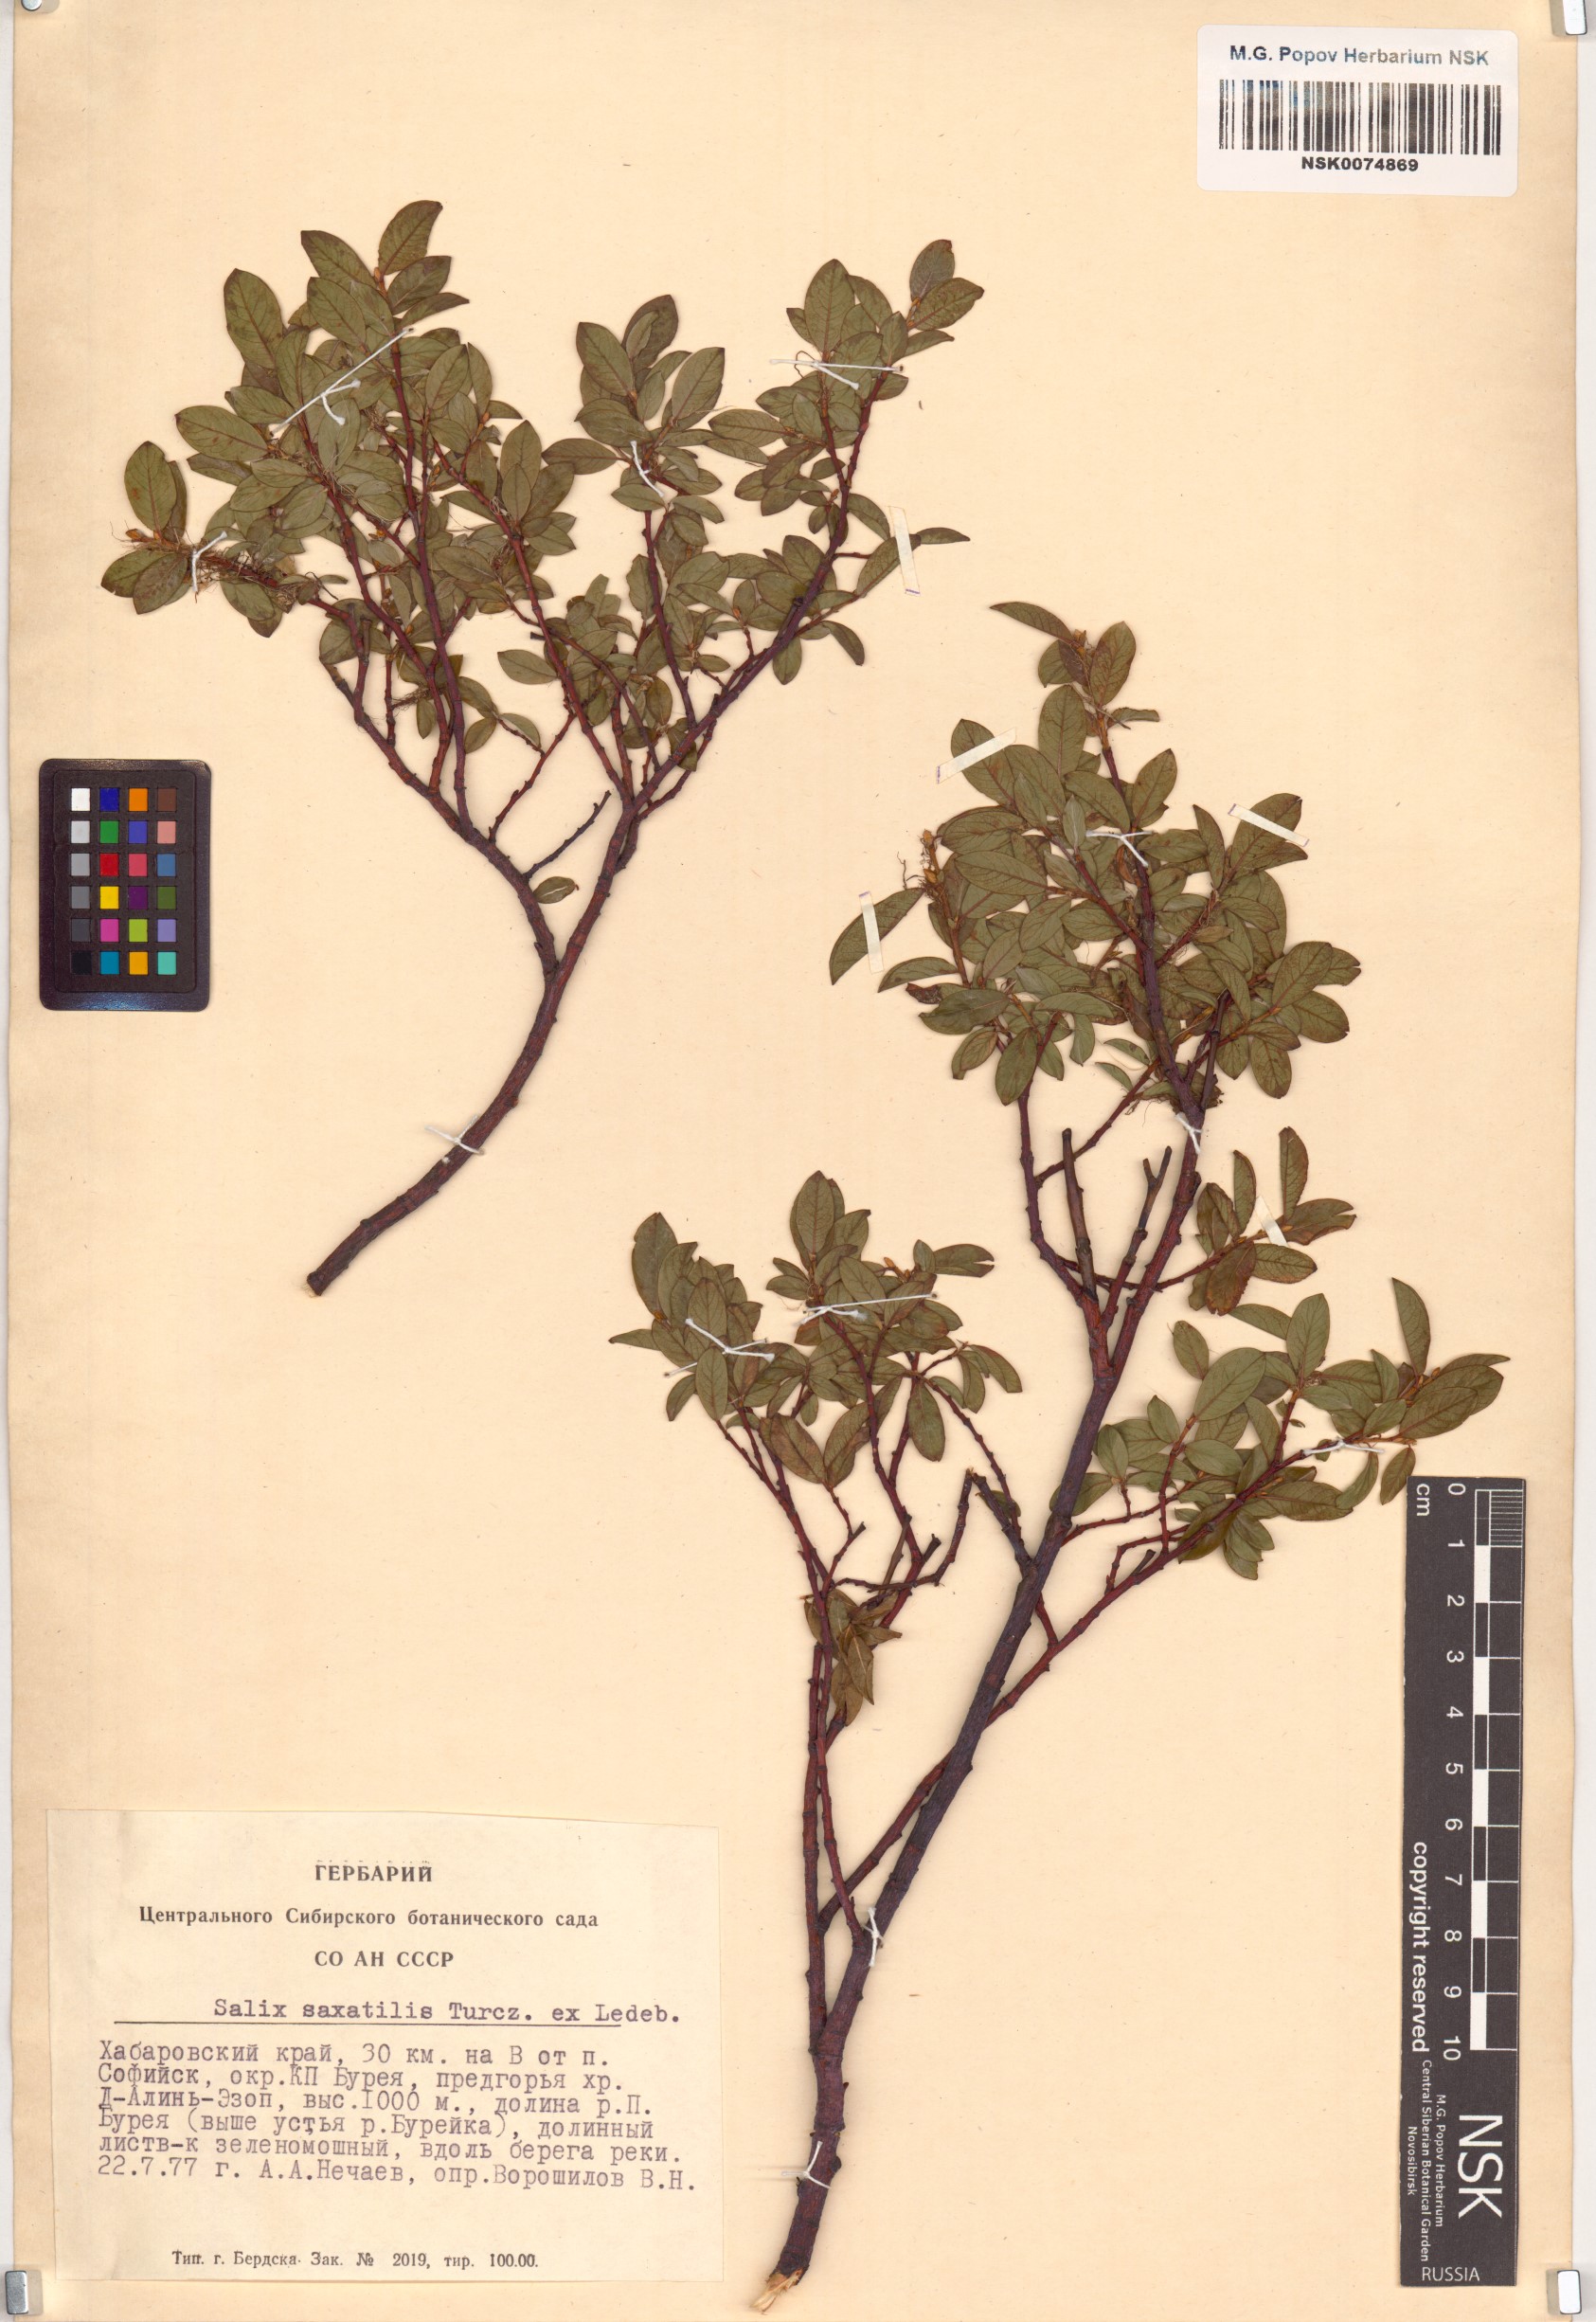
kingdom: Plantae
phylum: Tracheophyta
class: Magnoliopsida
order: Malpighiales
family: Salicaceae
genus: Salix
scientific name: Salix saxatilis
